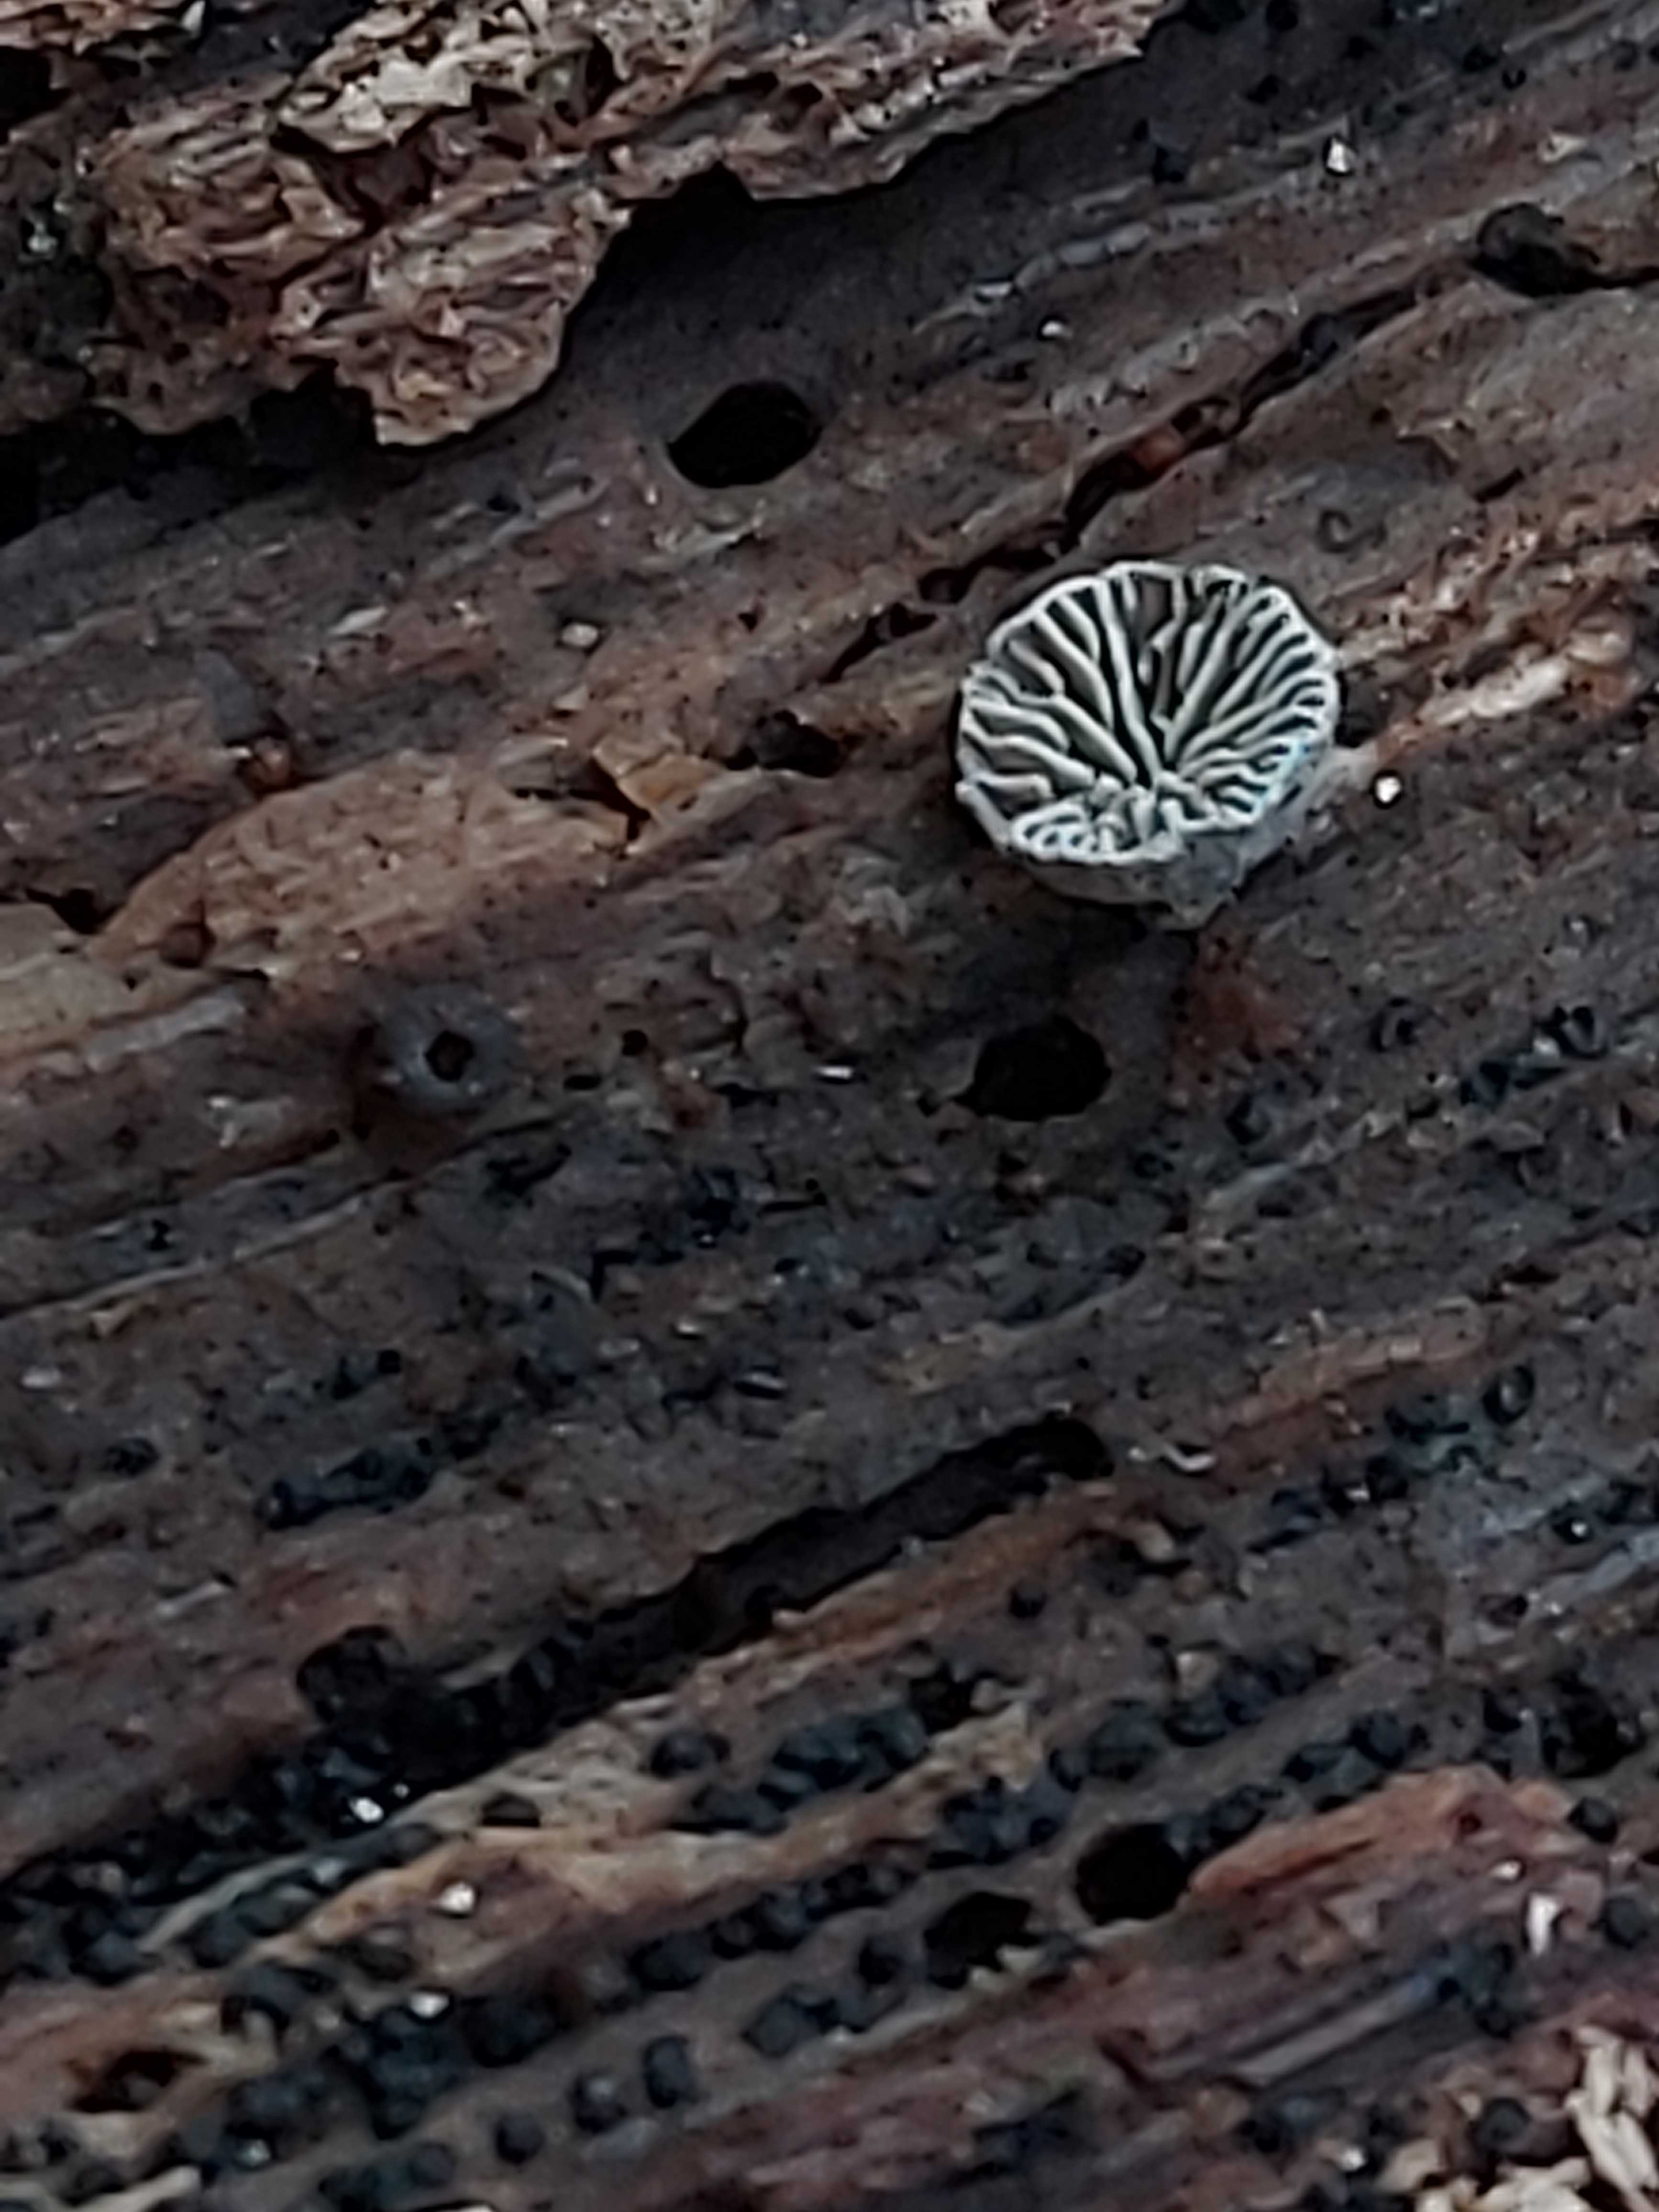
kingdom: Fungi
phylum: Basidiomycota
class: Agaricomycetes
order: Agaricales
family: Pleurotaceae
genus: Resupinatus
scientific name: Resupinatus
